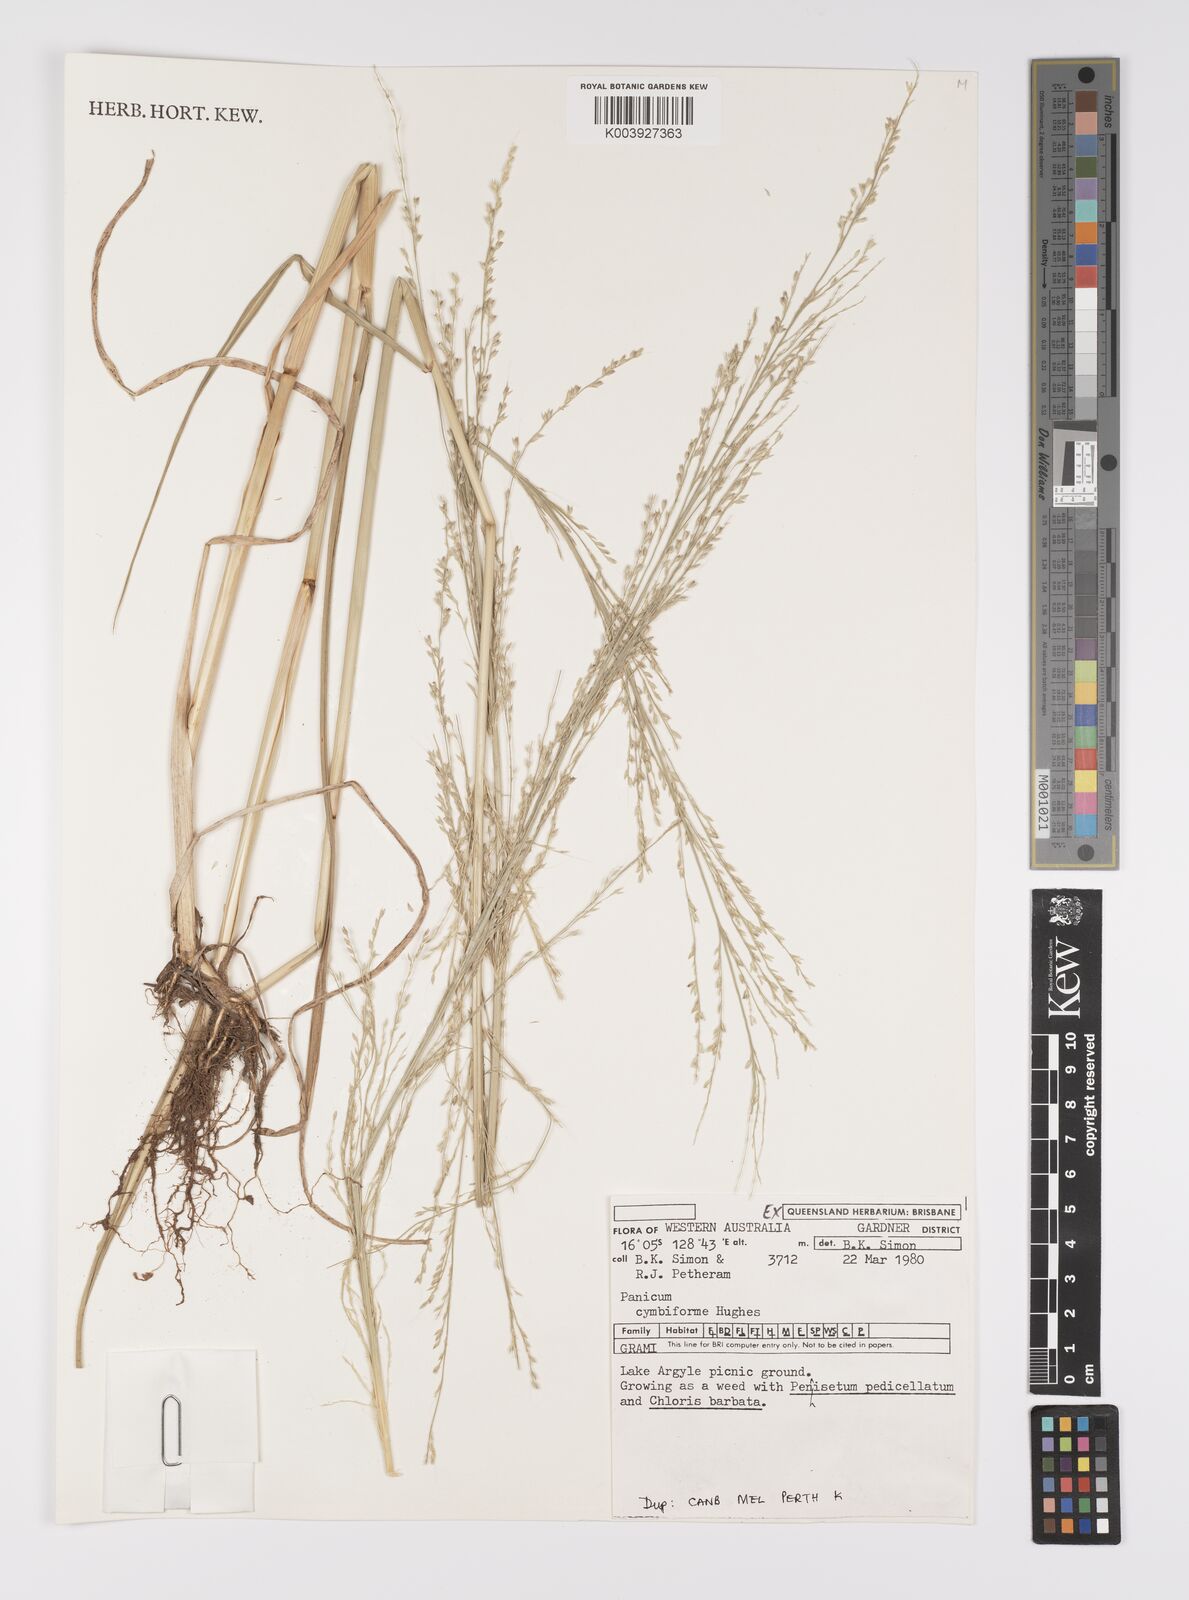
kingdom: Plantae
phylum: Tracheophyta
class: Liliopsida
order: Poales
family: Poaceae
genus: Whiteochloa
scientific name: Whiteochloa cymbiformis
